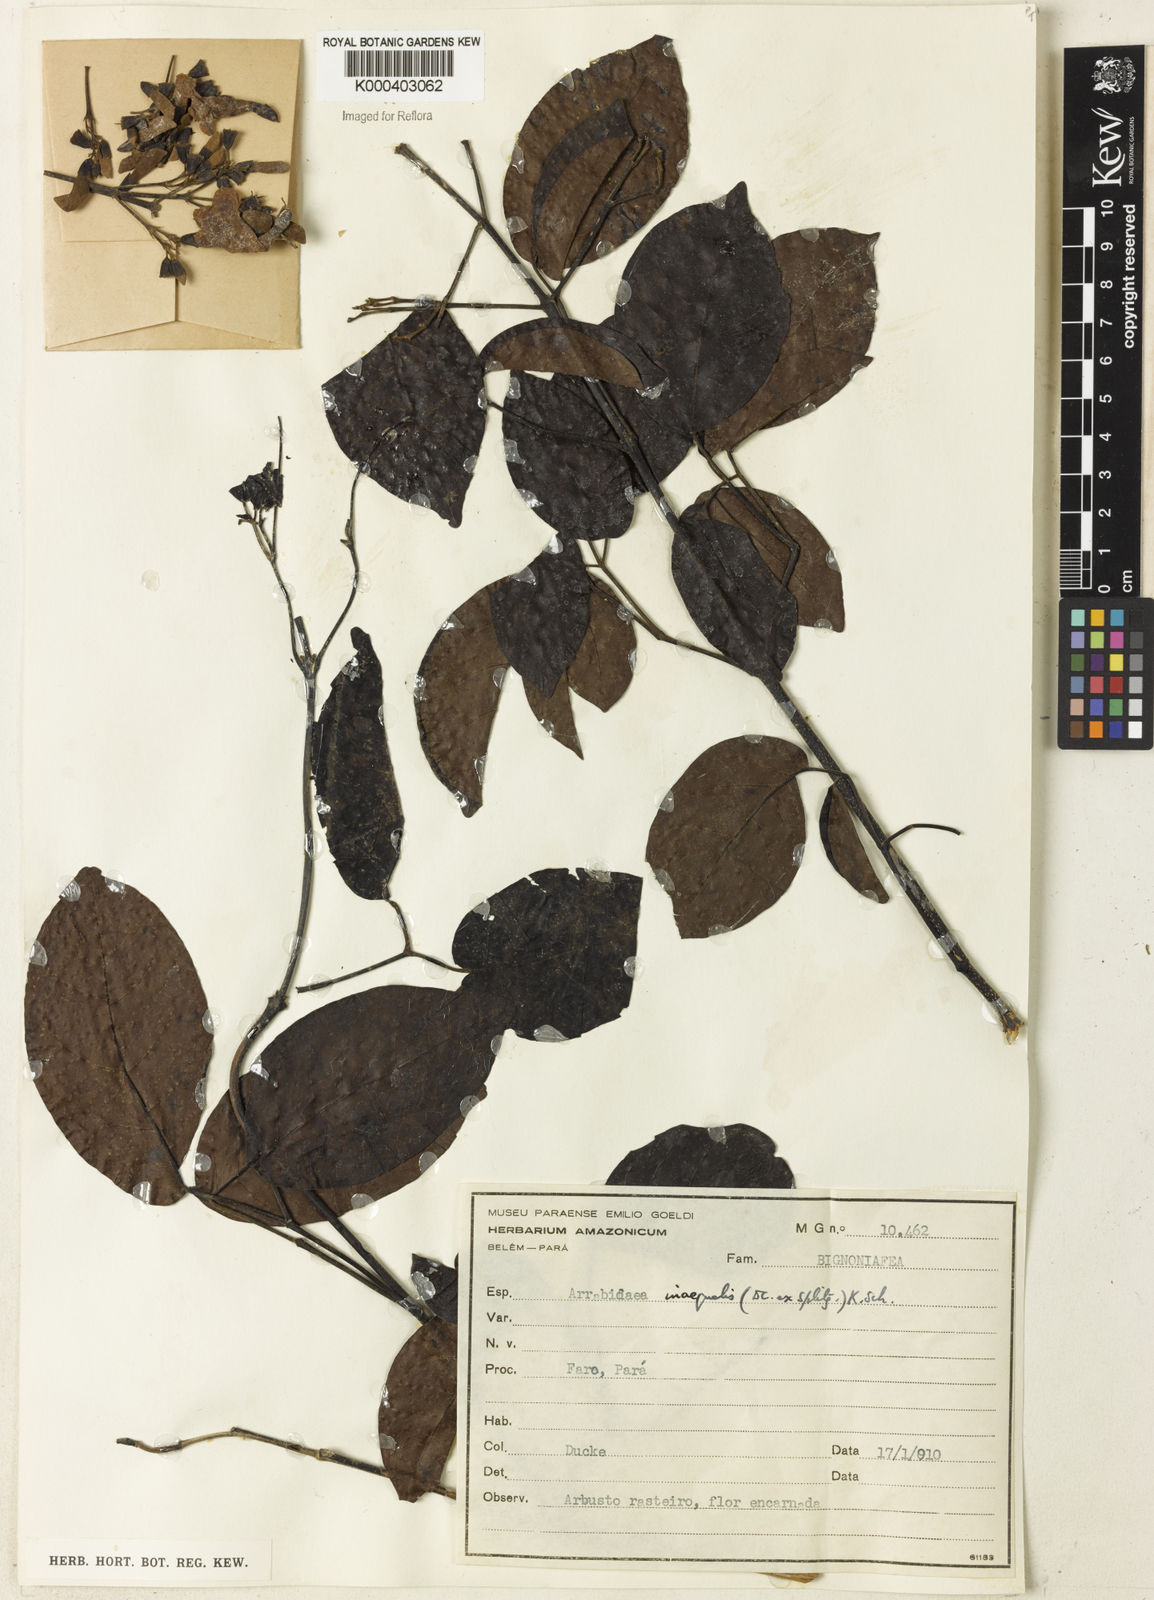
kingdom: Plantae
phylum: Tracheophyta
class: Magnoliopsida
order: Rosales
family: Rhamnaceae
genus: Arrabidaea
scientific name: Arrabidaea
